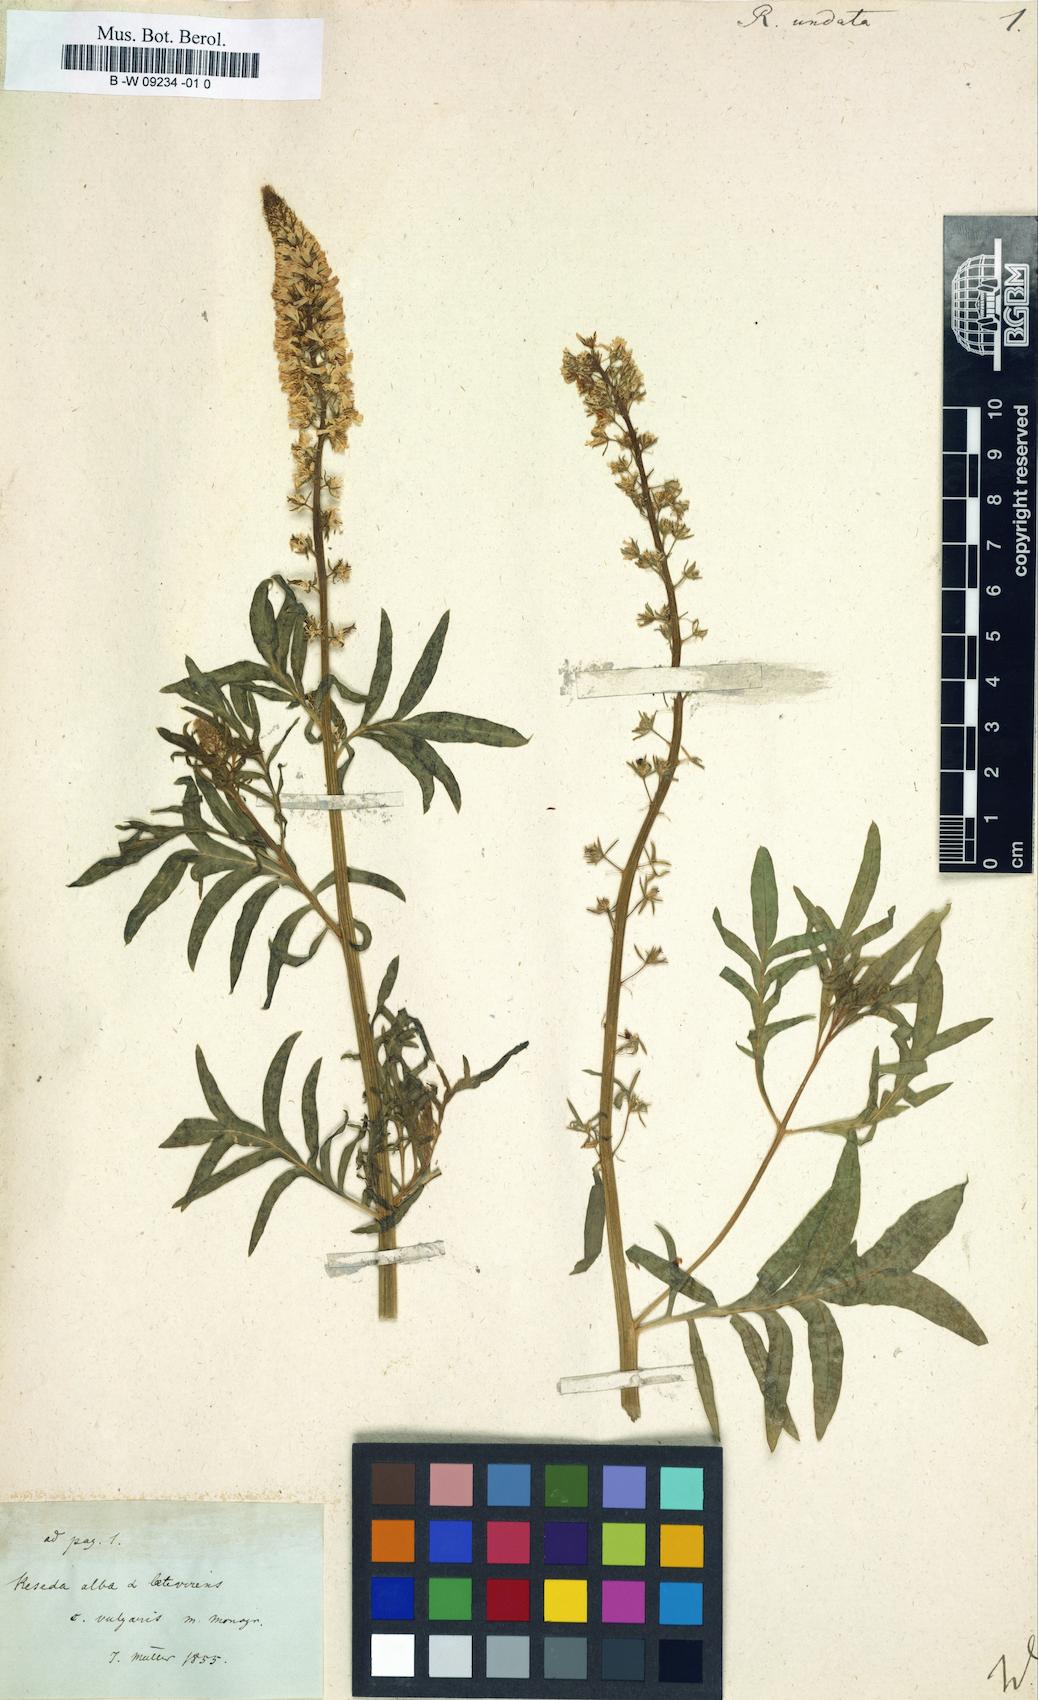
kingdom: Plantae
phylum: Tracheophyta
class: Magnoliopsida
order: Brassicales
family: Resedaceae
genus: Reseda
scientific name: Reseda undata
